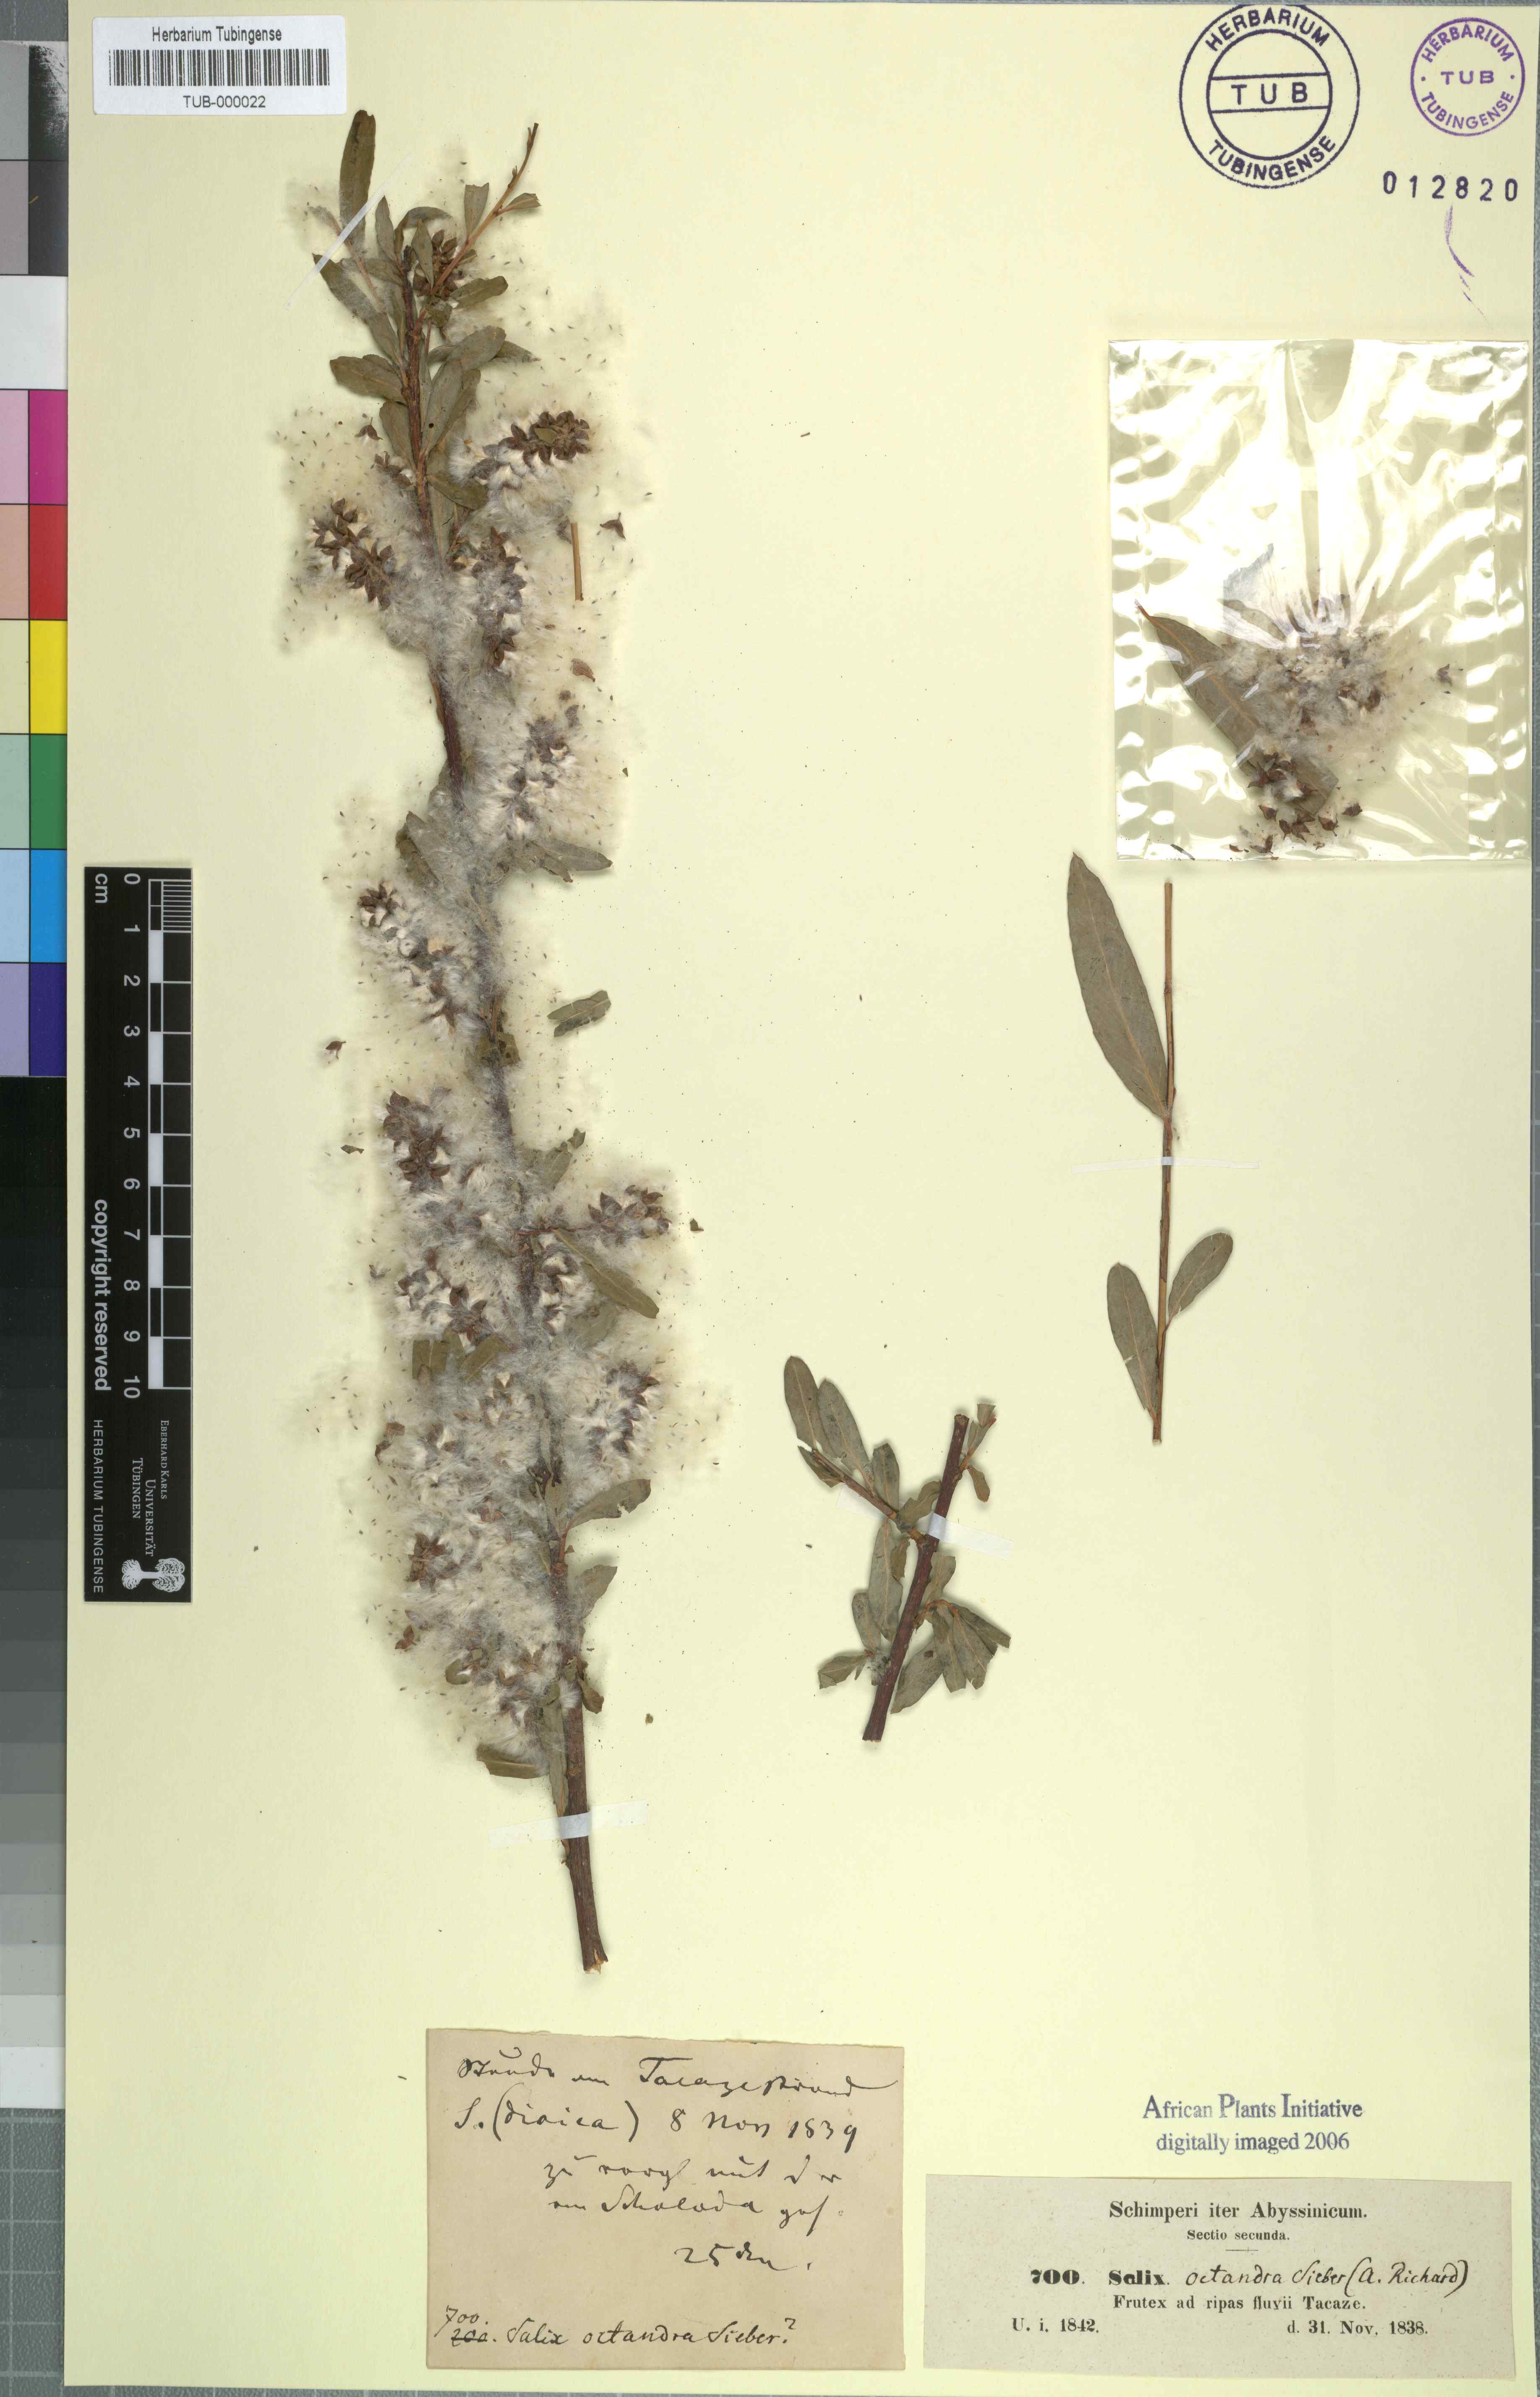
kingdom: Plantae
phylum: Tracheophyta
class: Magnoliopsida
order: Malpighiales
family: Salicaceae
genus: Salix
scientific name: Salix mucronata
